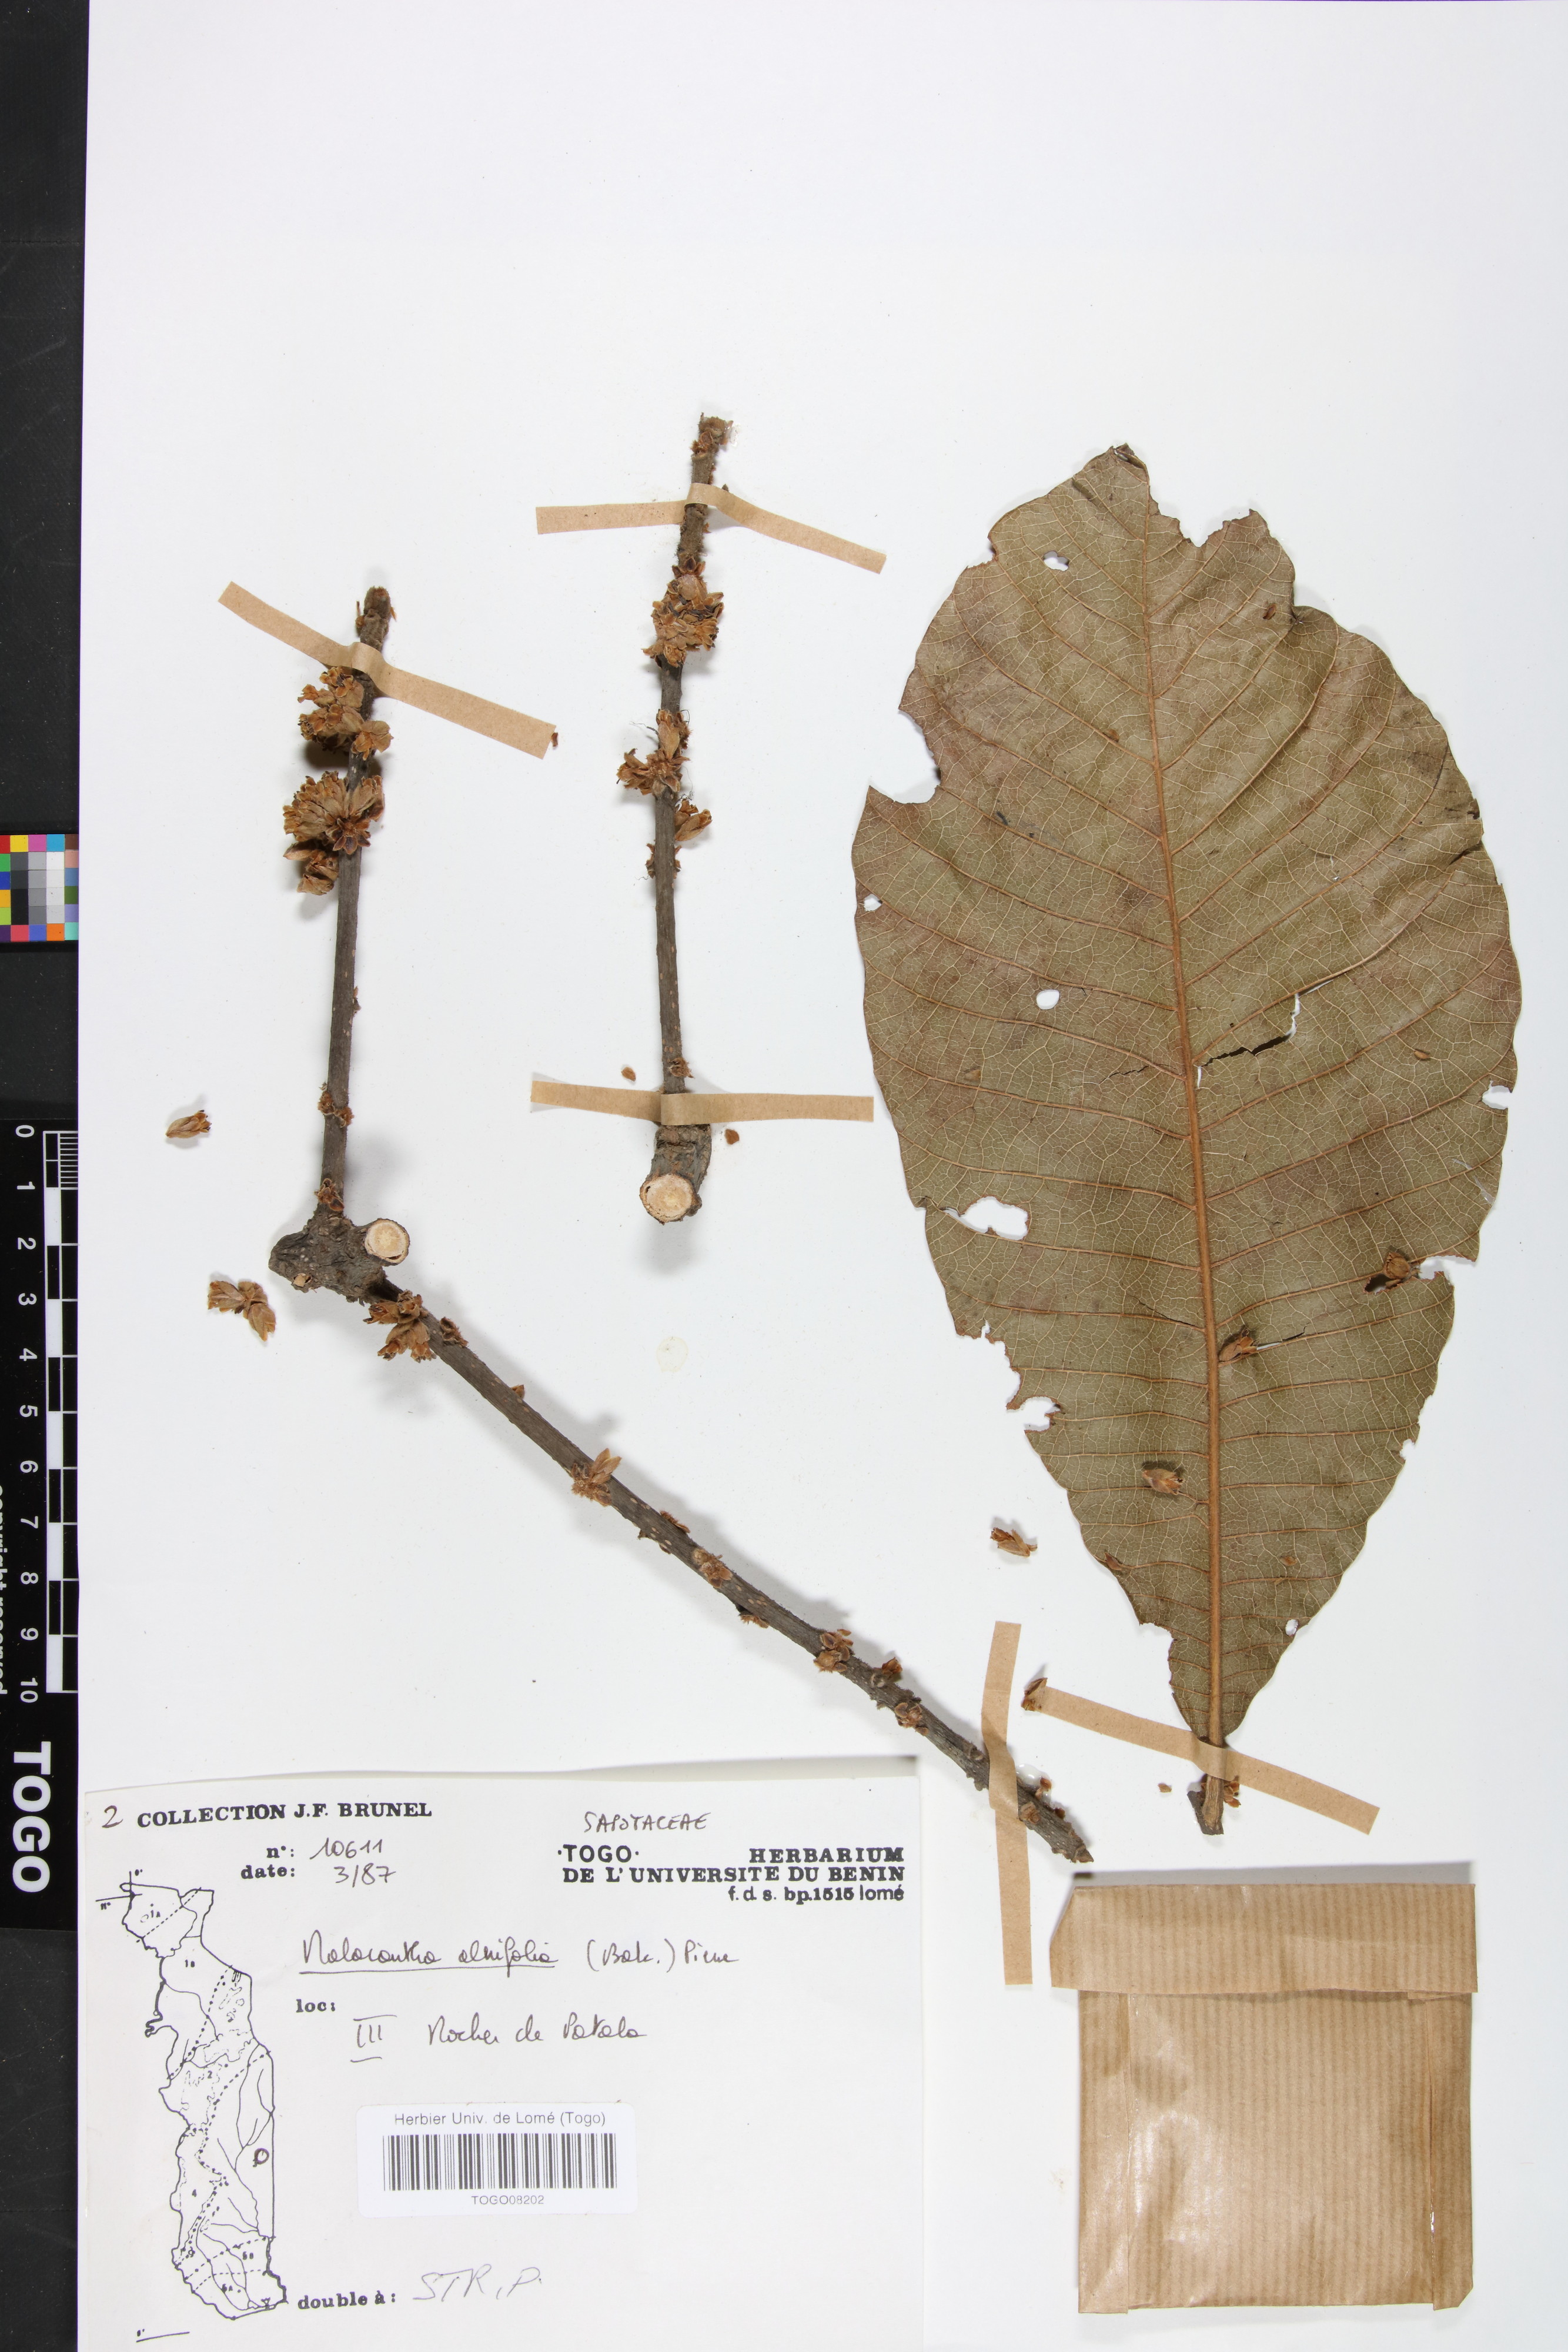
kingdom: Plantae
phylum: Tracheophyta
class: Magnoliopsida
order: Ericales
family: Sapotaceae
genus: Malacantha
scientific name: Malacantha alnifolia
